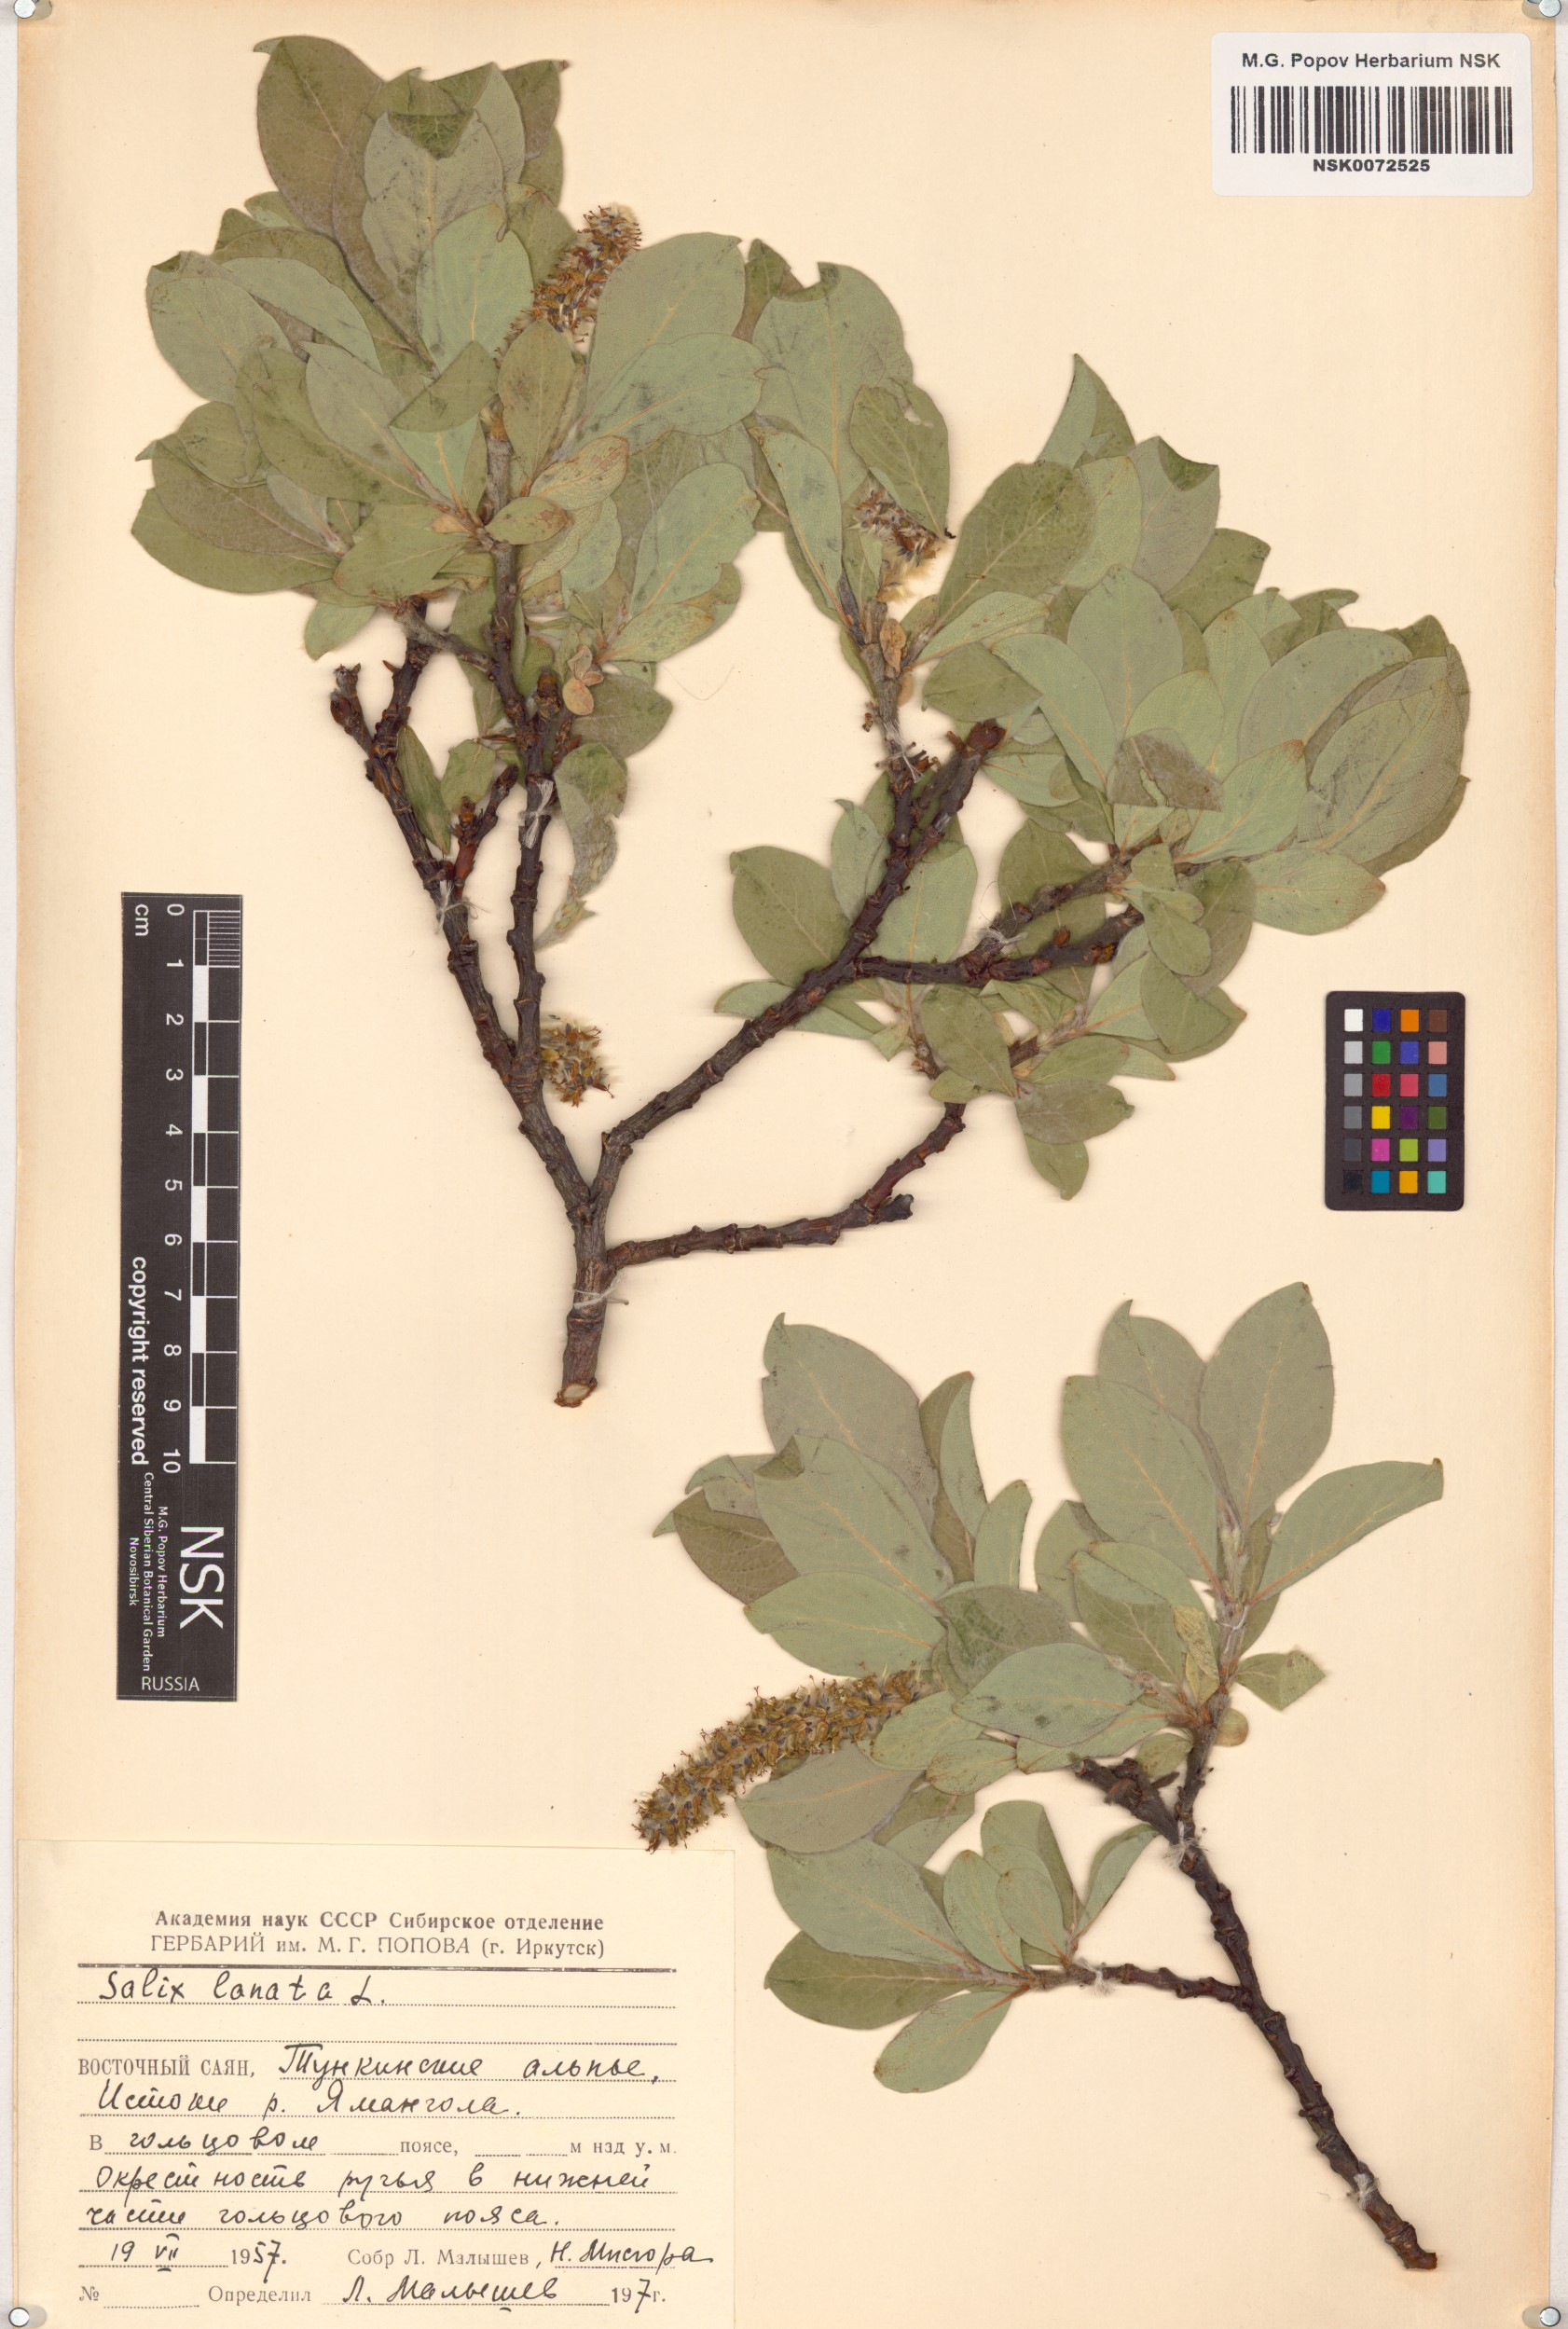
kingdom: Plantae
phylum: Tracheophyta
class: Magnoliopsida
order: Malpighiales
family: Salicaceae
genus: Salix
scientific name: Salix lanata
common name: Woolly willow
